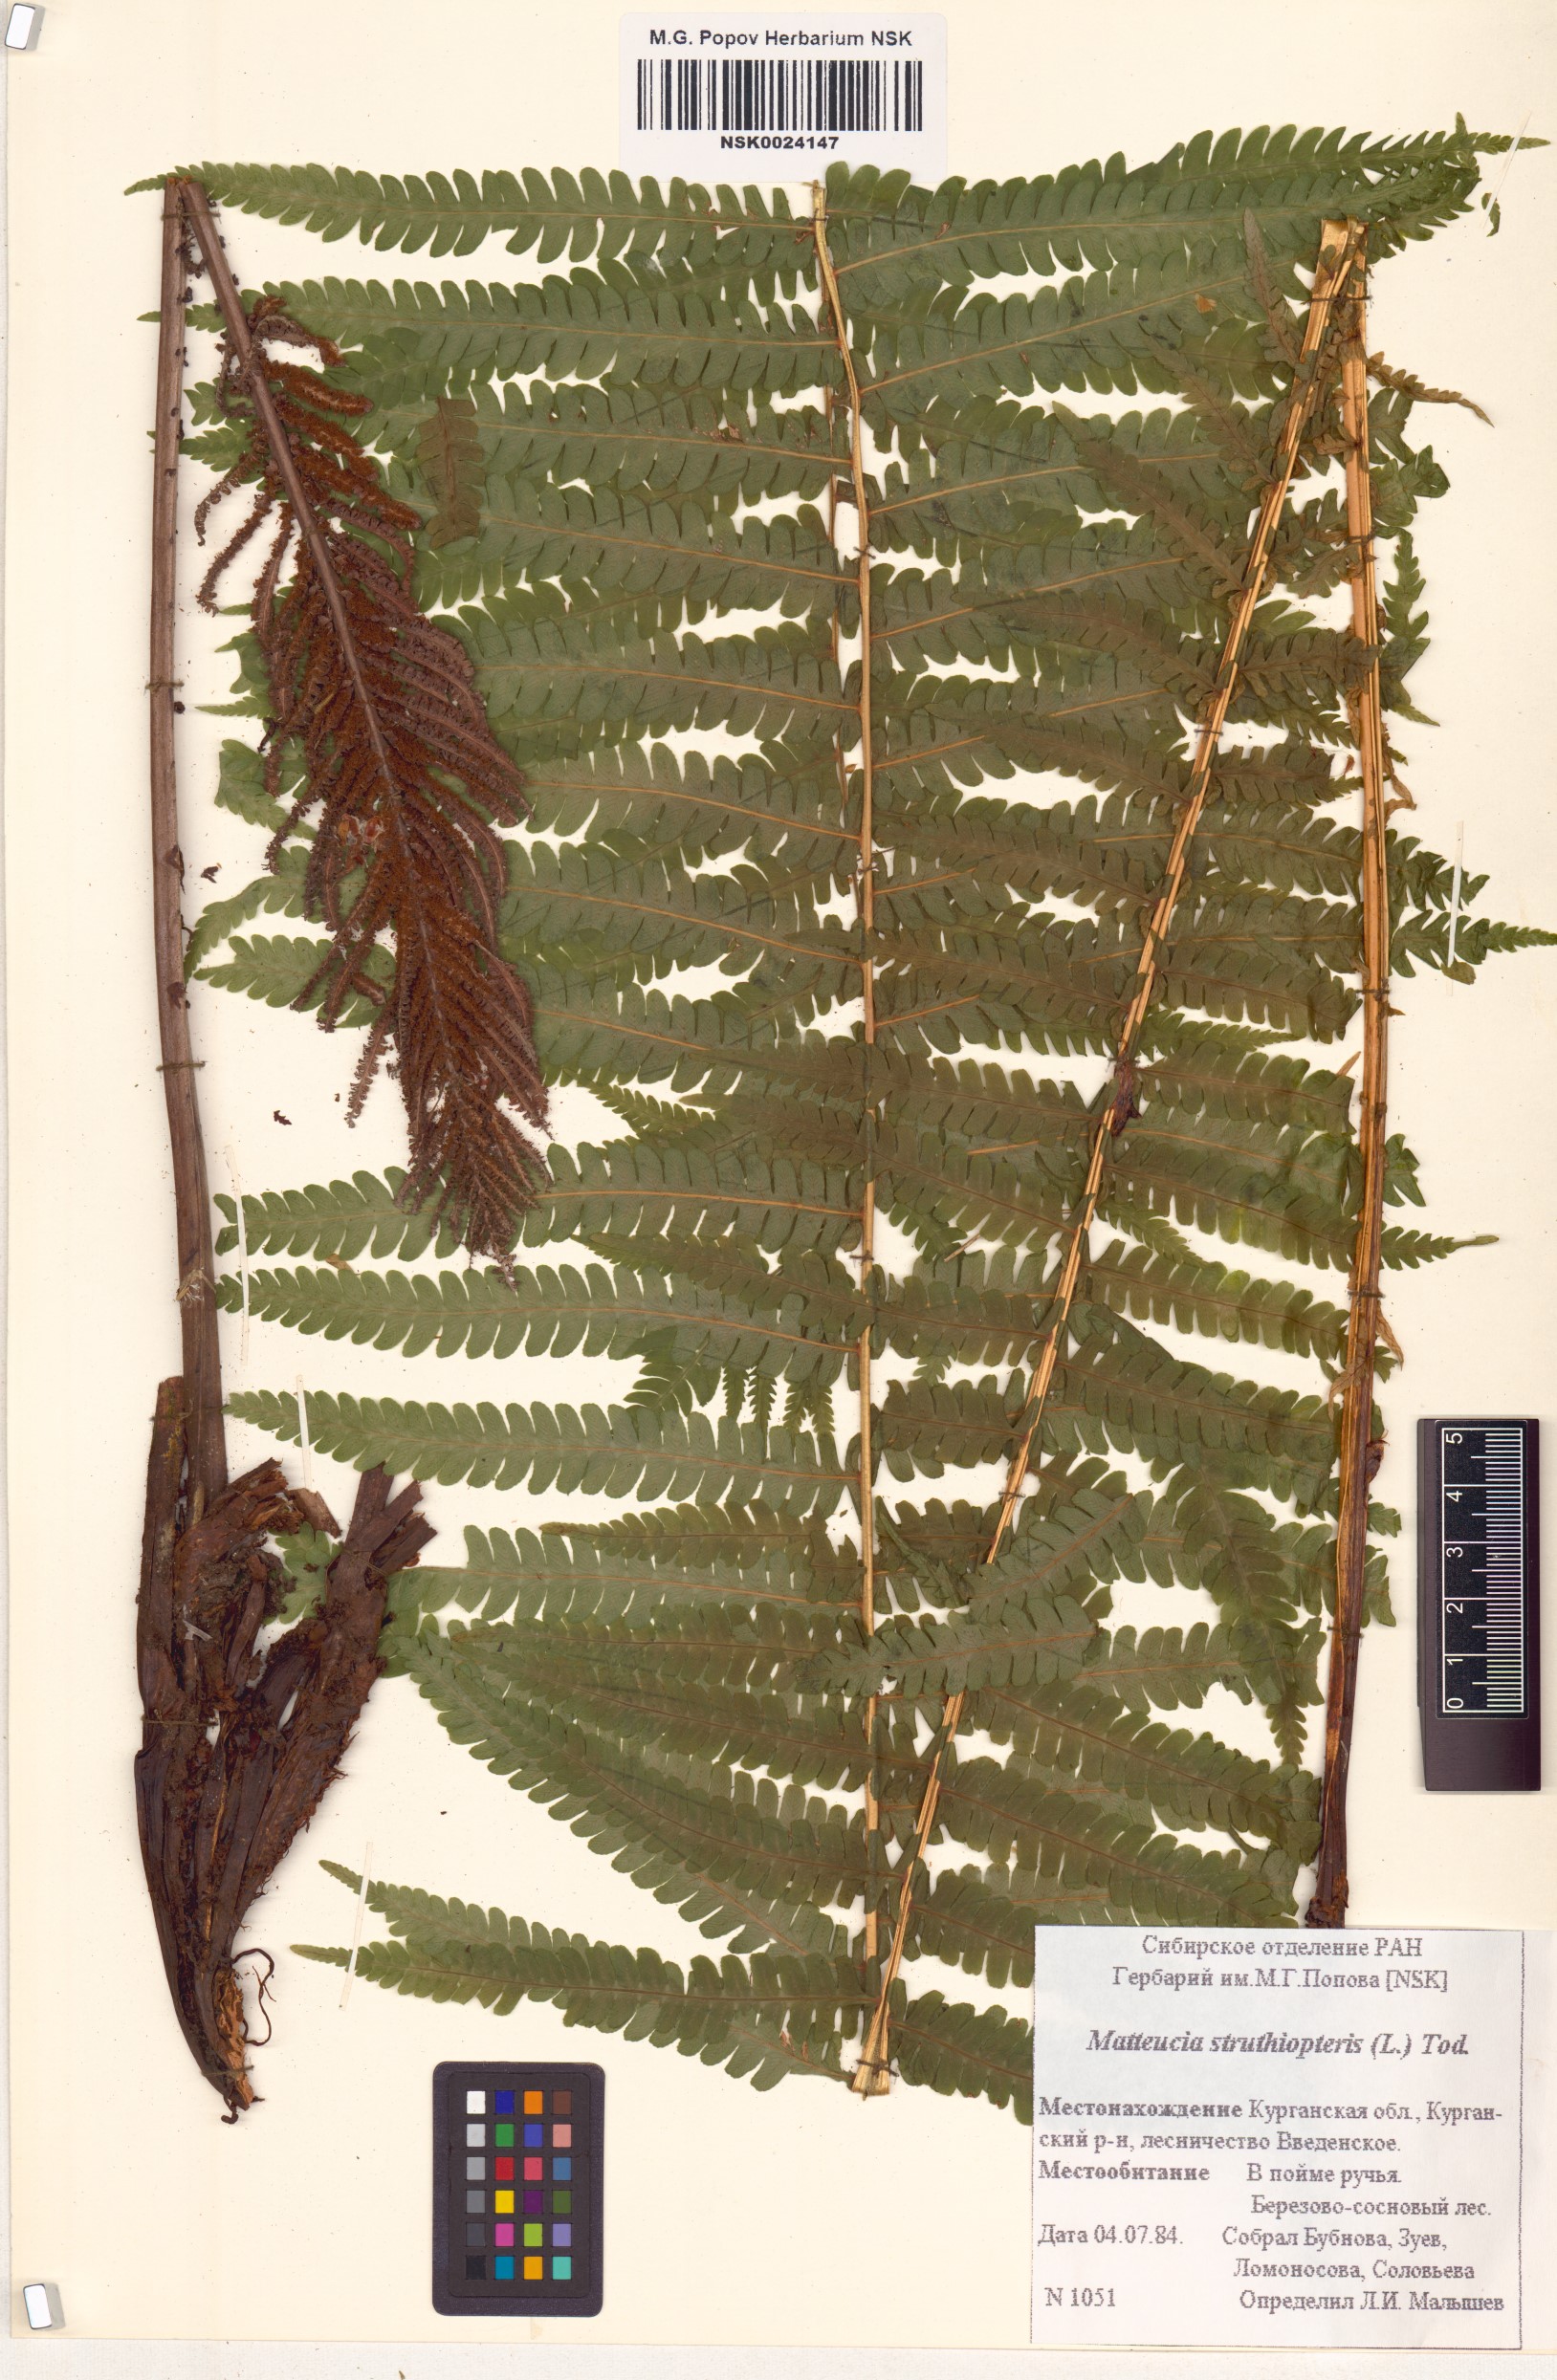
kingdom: Plantae
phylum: Tracheophyta
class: Polypodiopsida
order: Polypodiales
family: Onocleaceae
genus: Matteuccia
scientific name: Matteuccia struthiopteris
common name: Ostrich fern
